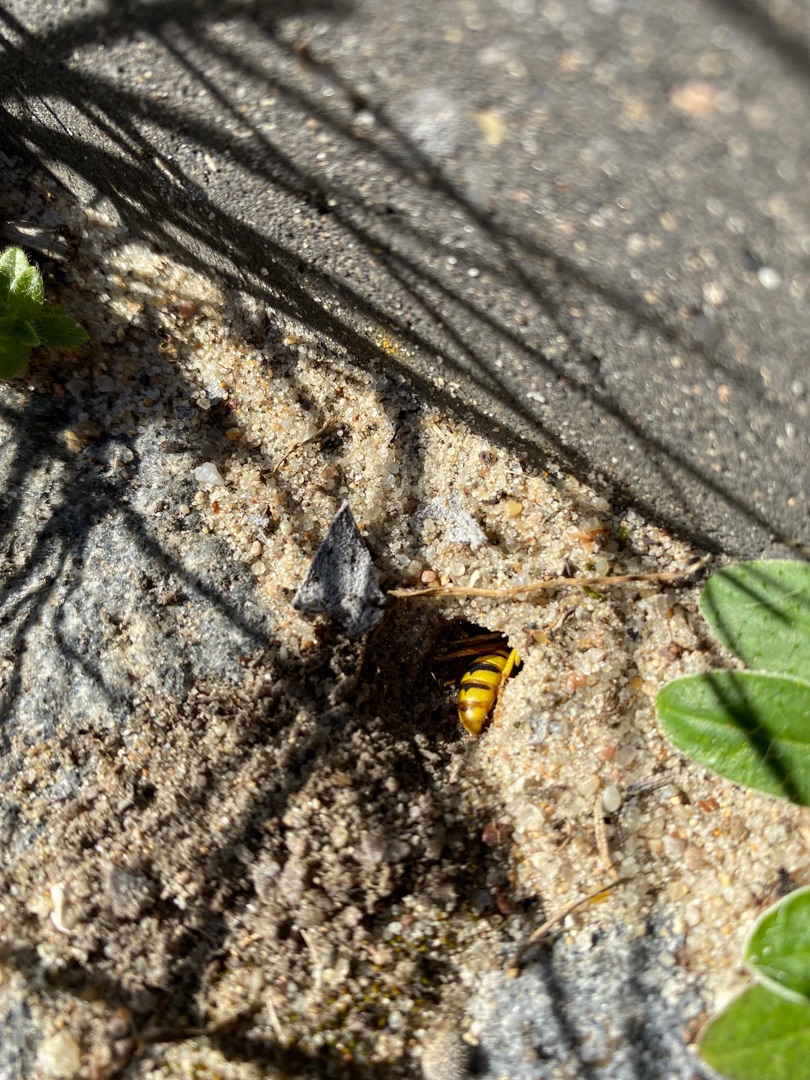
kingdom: Animalia
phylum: Arthropoda
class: Insecta
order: Hymenoptera
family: Crabronidae
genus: Philanthus
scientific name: Philanthus triangulum
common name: Biulv
